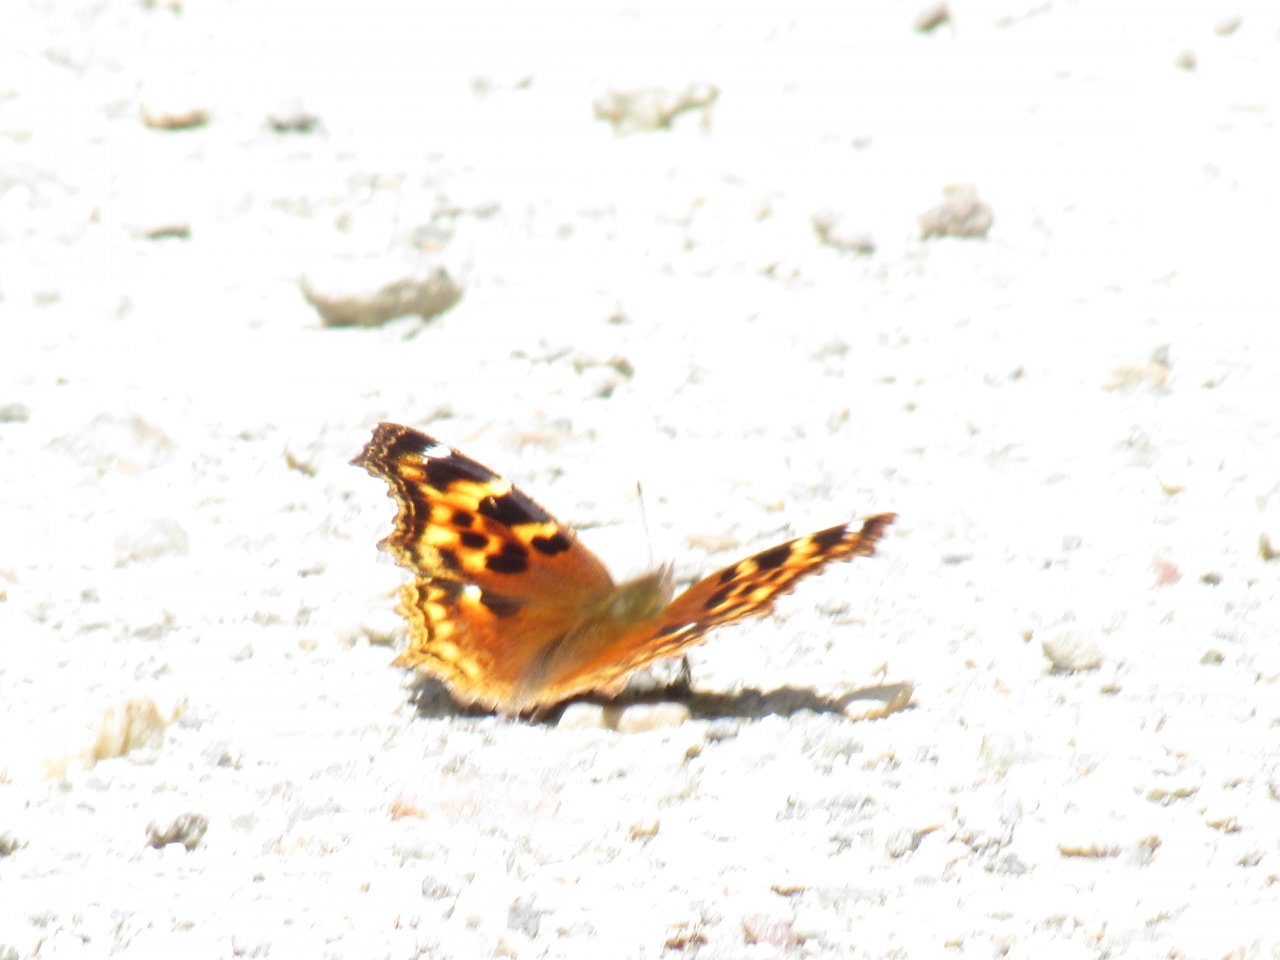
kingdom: Animalia
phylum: Arthropoda
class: Insecta
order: Lepidoptera
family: Nymphalidae
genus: Polygonia
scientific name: Polygonia vaualbum
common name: Compton Tortoiseshell
